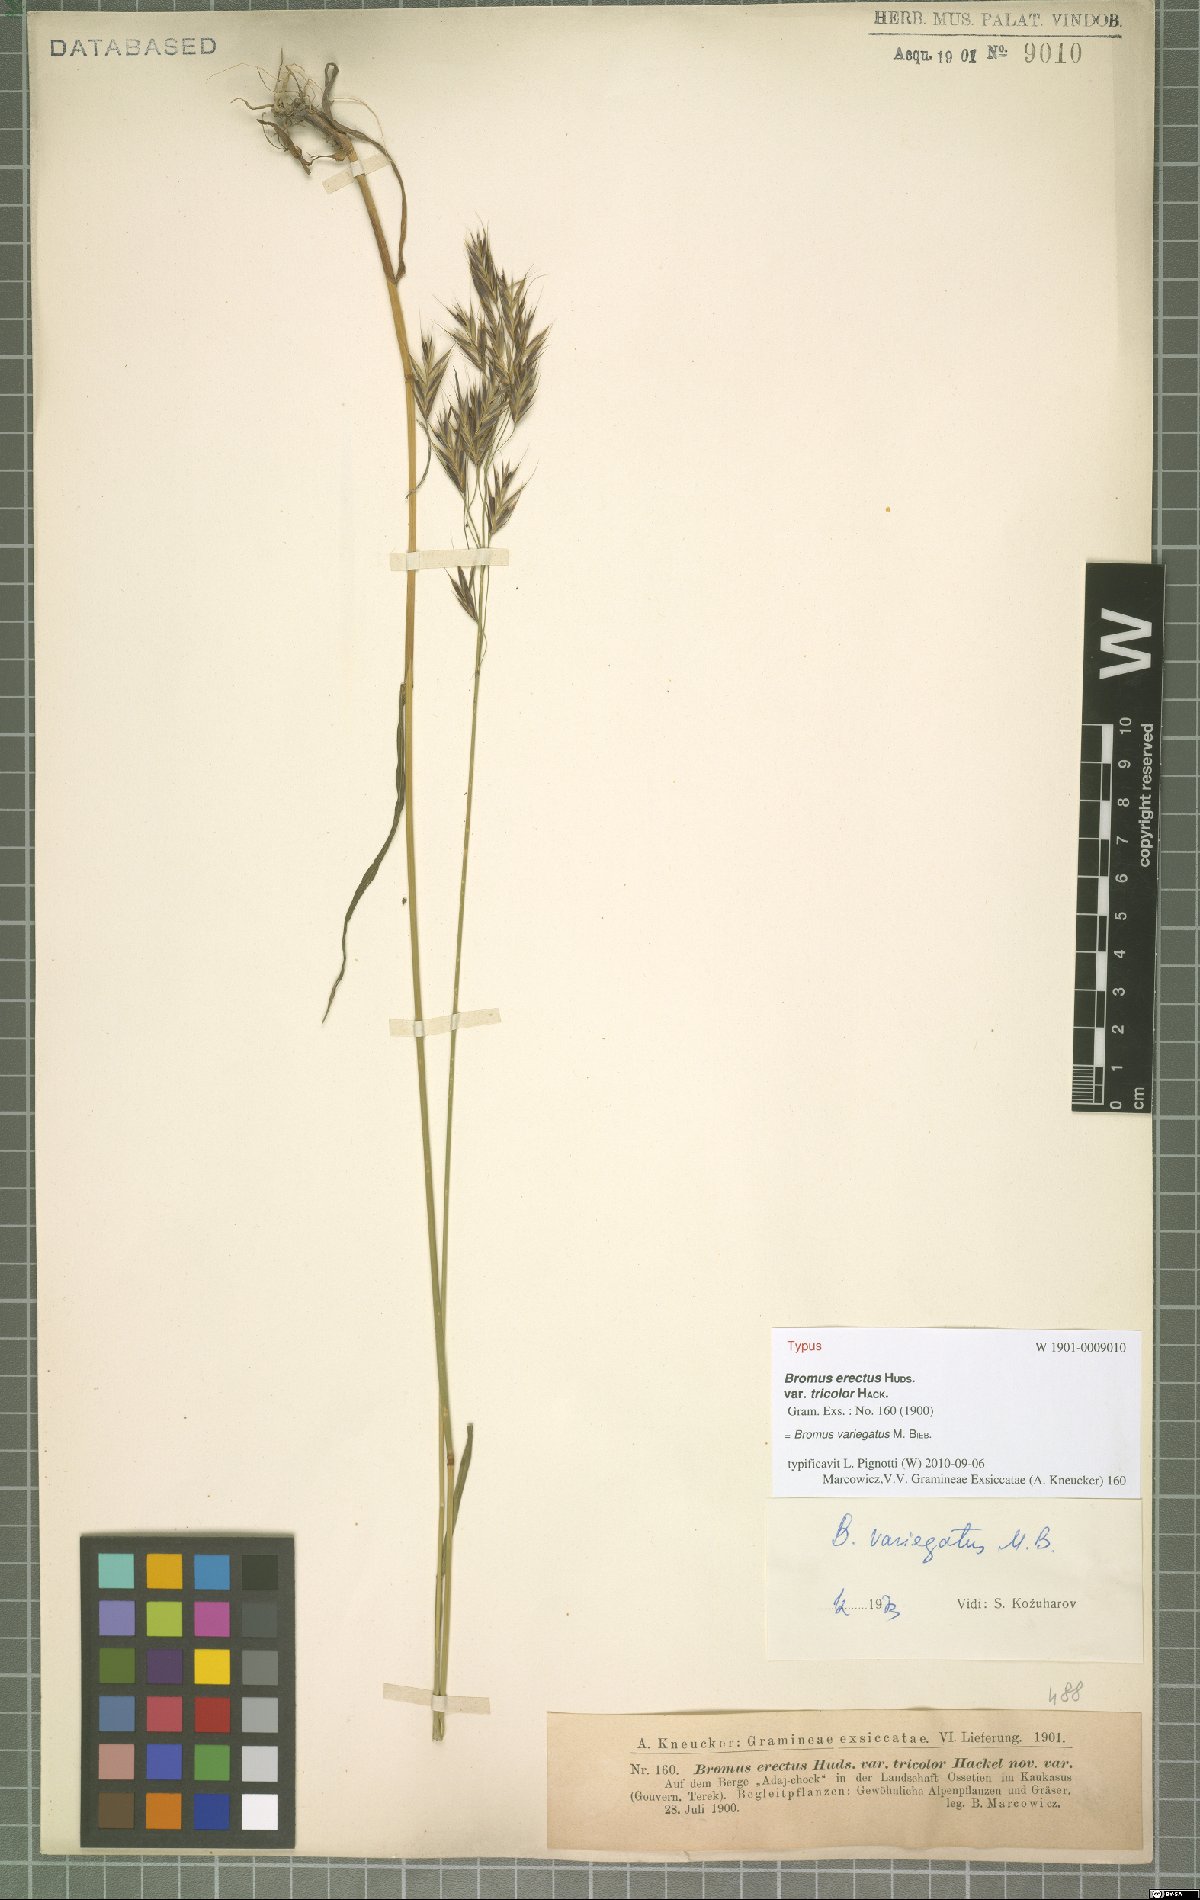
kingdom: Plantae
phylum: Tracheophyta
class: Liliopsida
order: Poales
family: Poaceae
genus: Bromus
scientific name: Bromus variegatus
